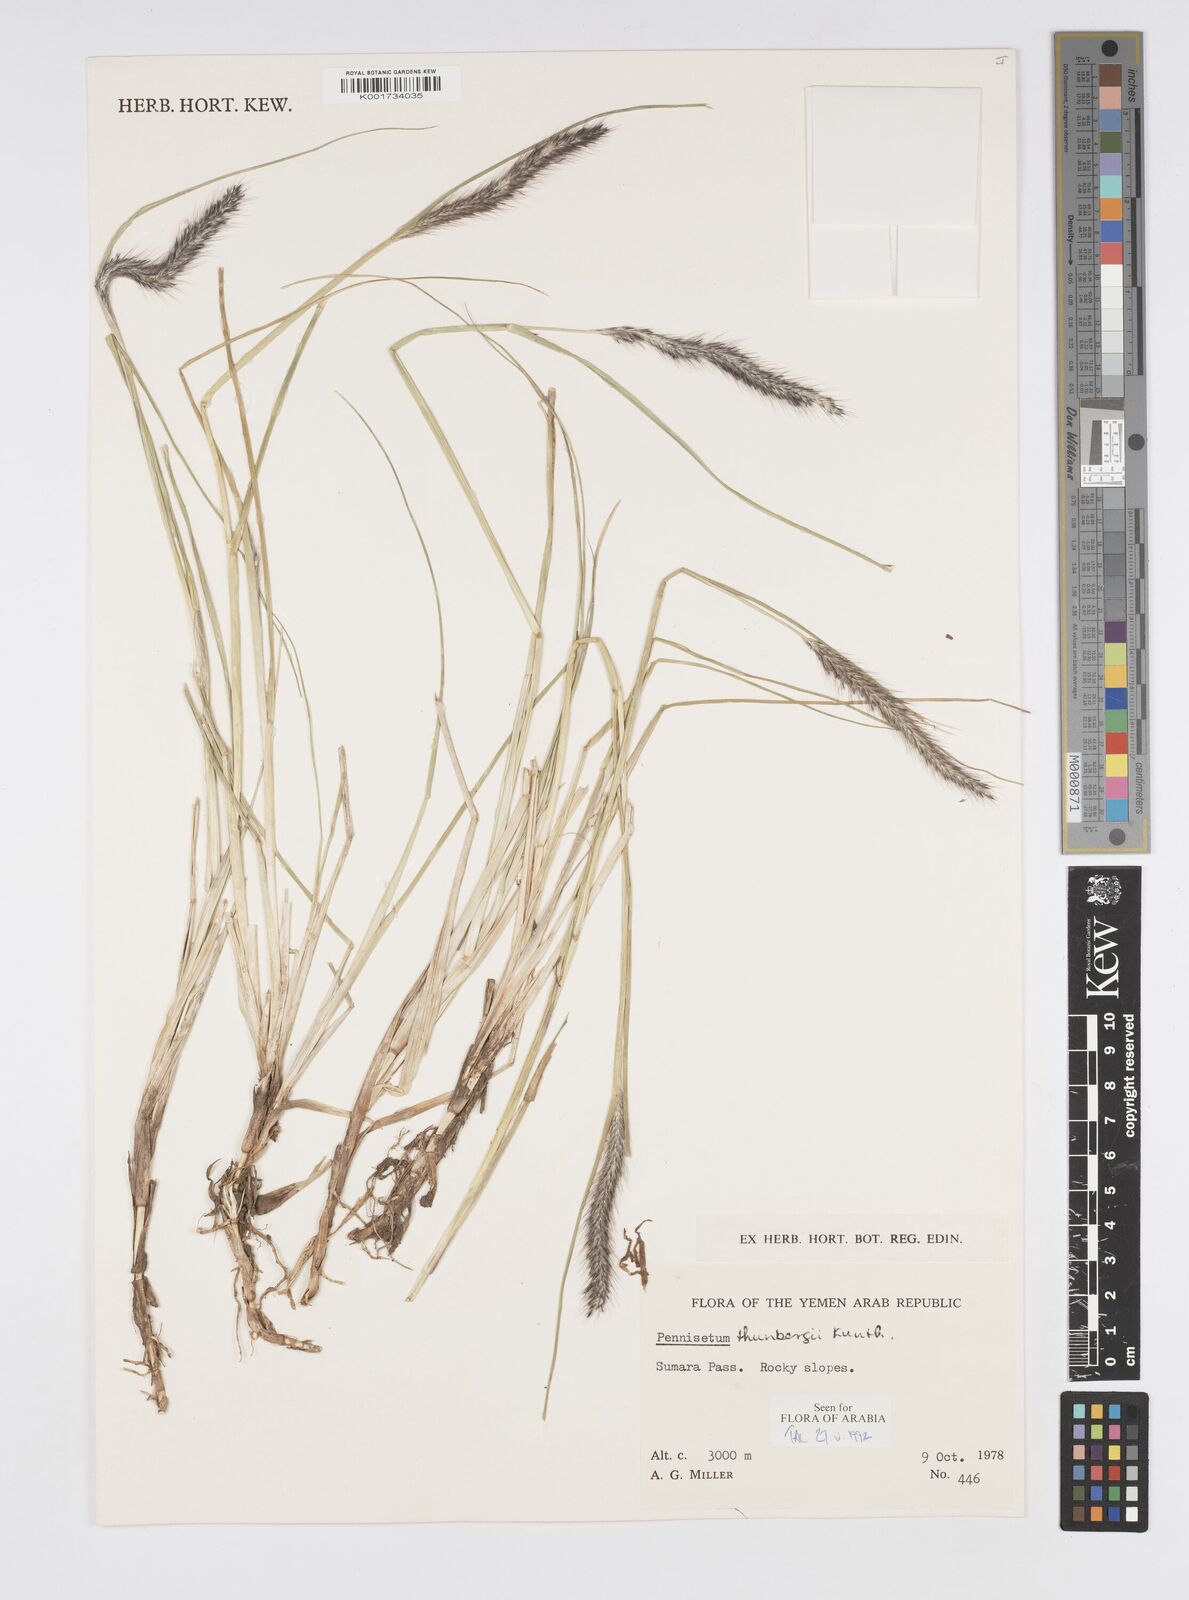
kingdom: Plantae
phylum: Tracheophyta
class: Liliopsida
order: Poales
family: Poaceae
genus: Cenchrus
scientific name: Cenchrus geniculatus
